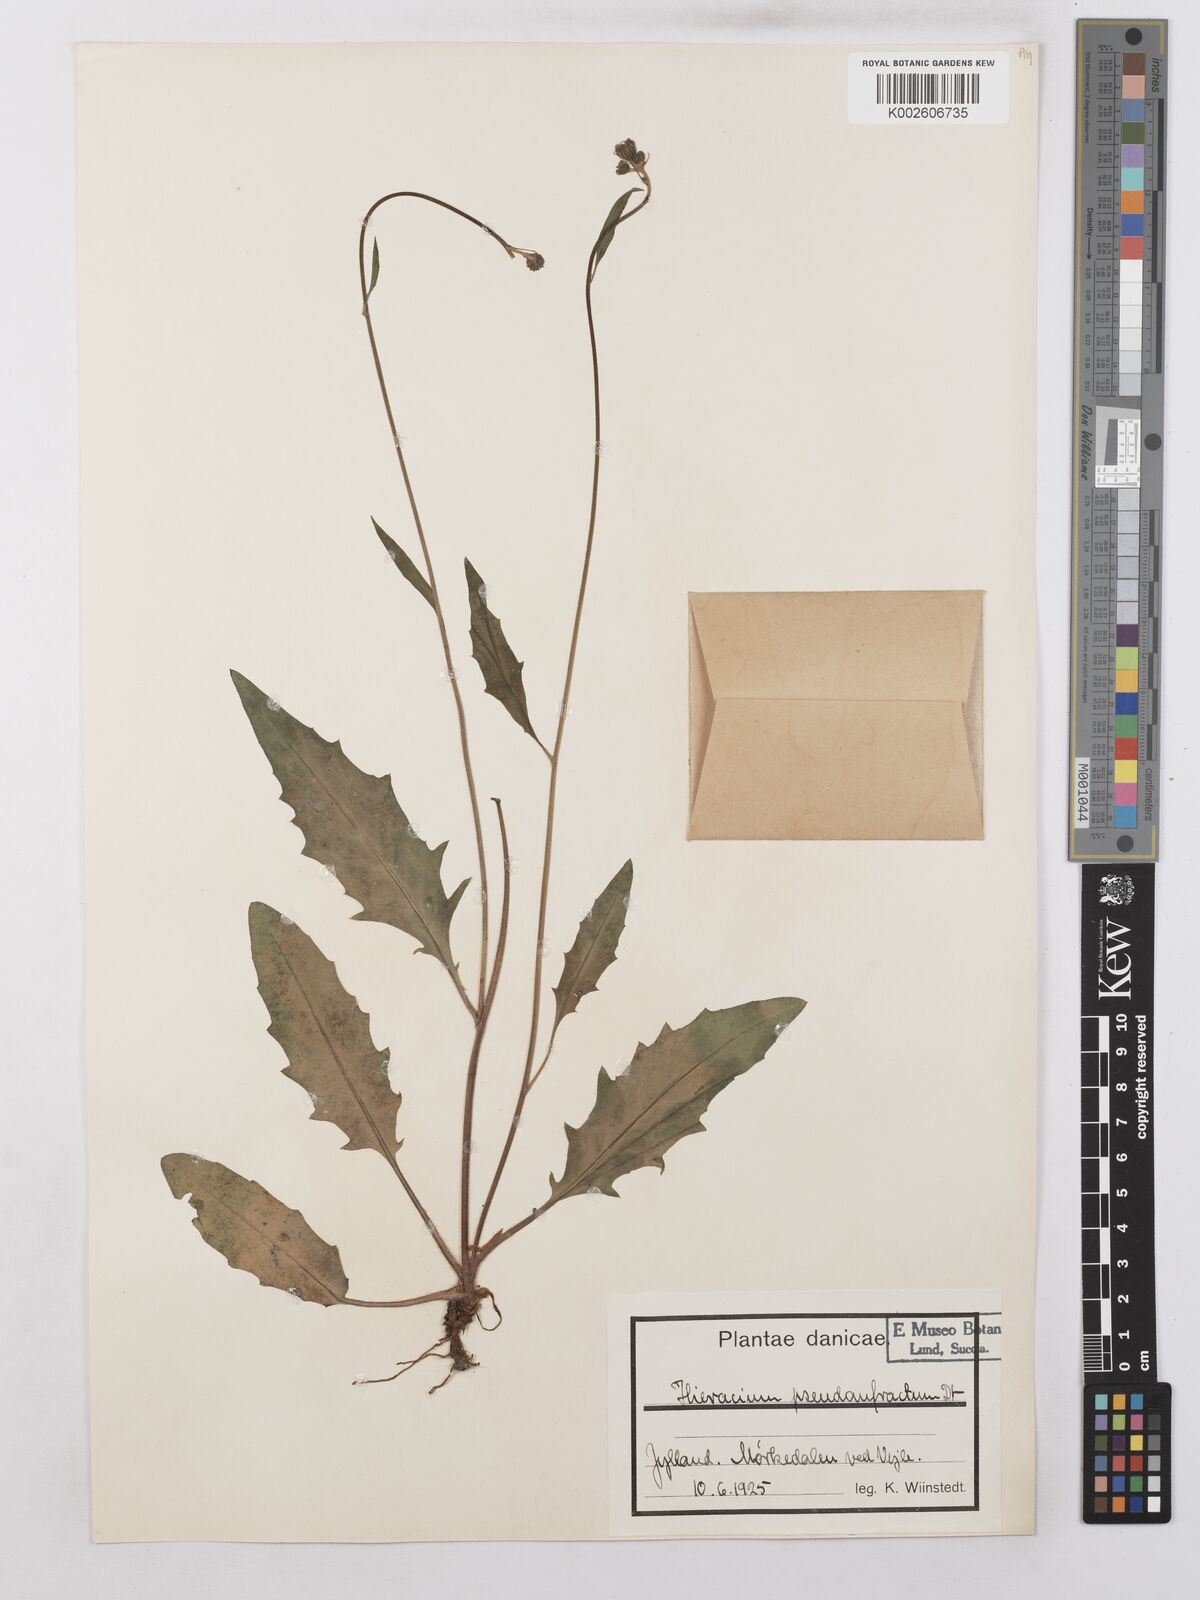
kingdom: Plantae
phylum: Tracheophyta
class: Magnoliopsida
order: Asterales
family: Asteraceae
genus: Hieracium
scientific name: Hieracium lachenalii
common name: Common hawkweed
